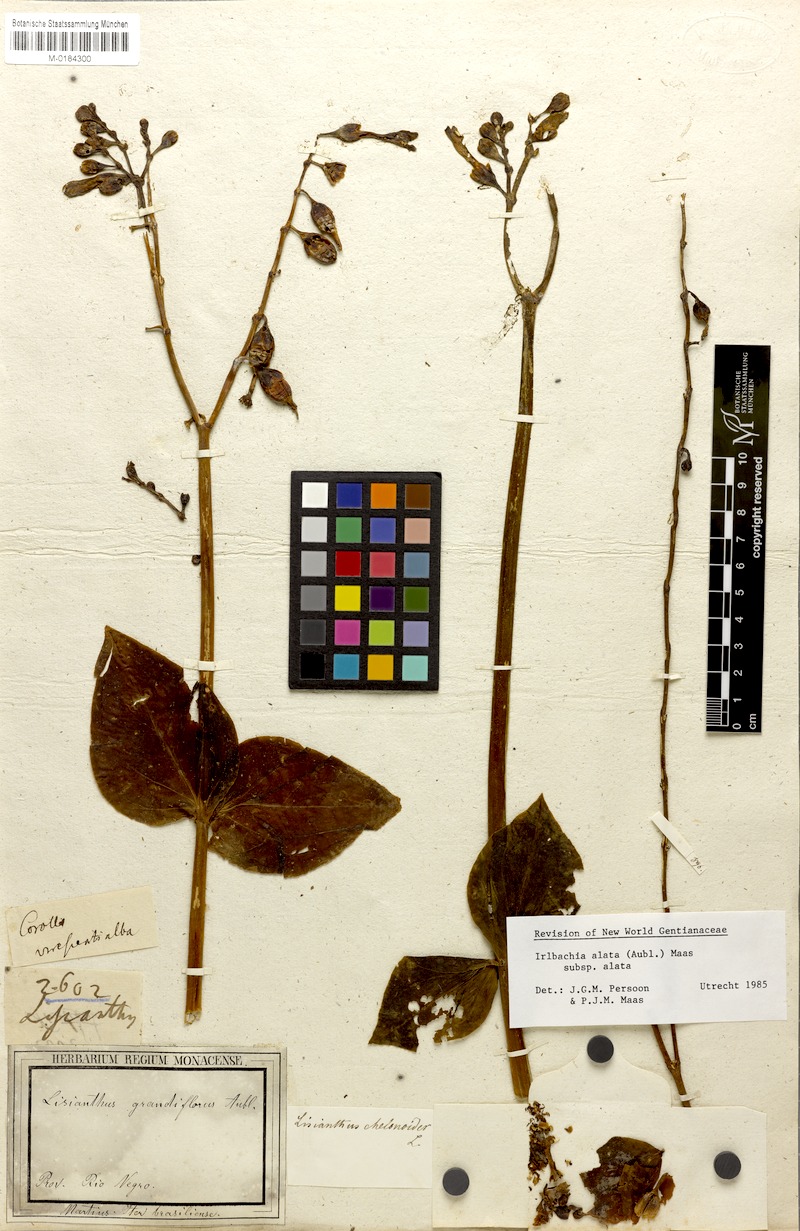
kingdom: Plantae
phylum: Tracheophyta
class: Magnoliopsida
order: Gentianales
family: Gentianaceae
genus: Chelonanthus
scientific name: Chelonanthus alatus
